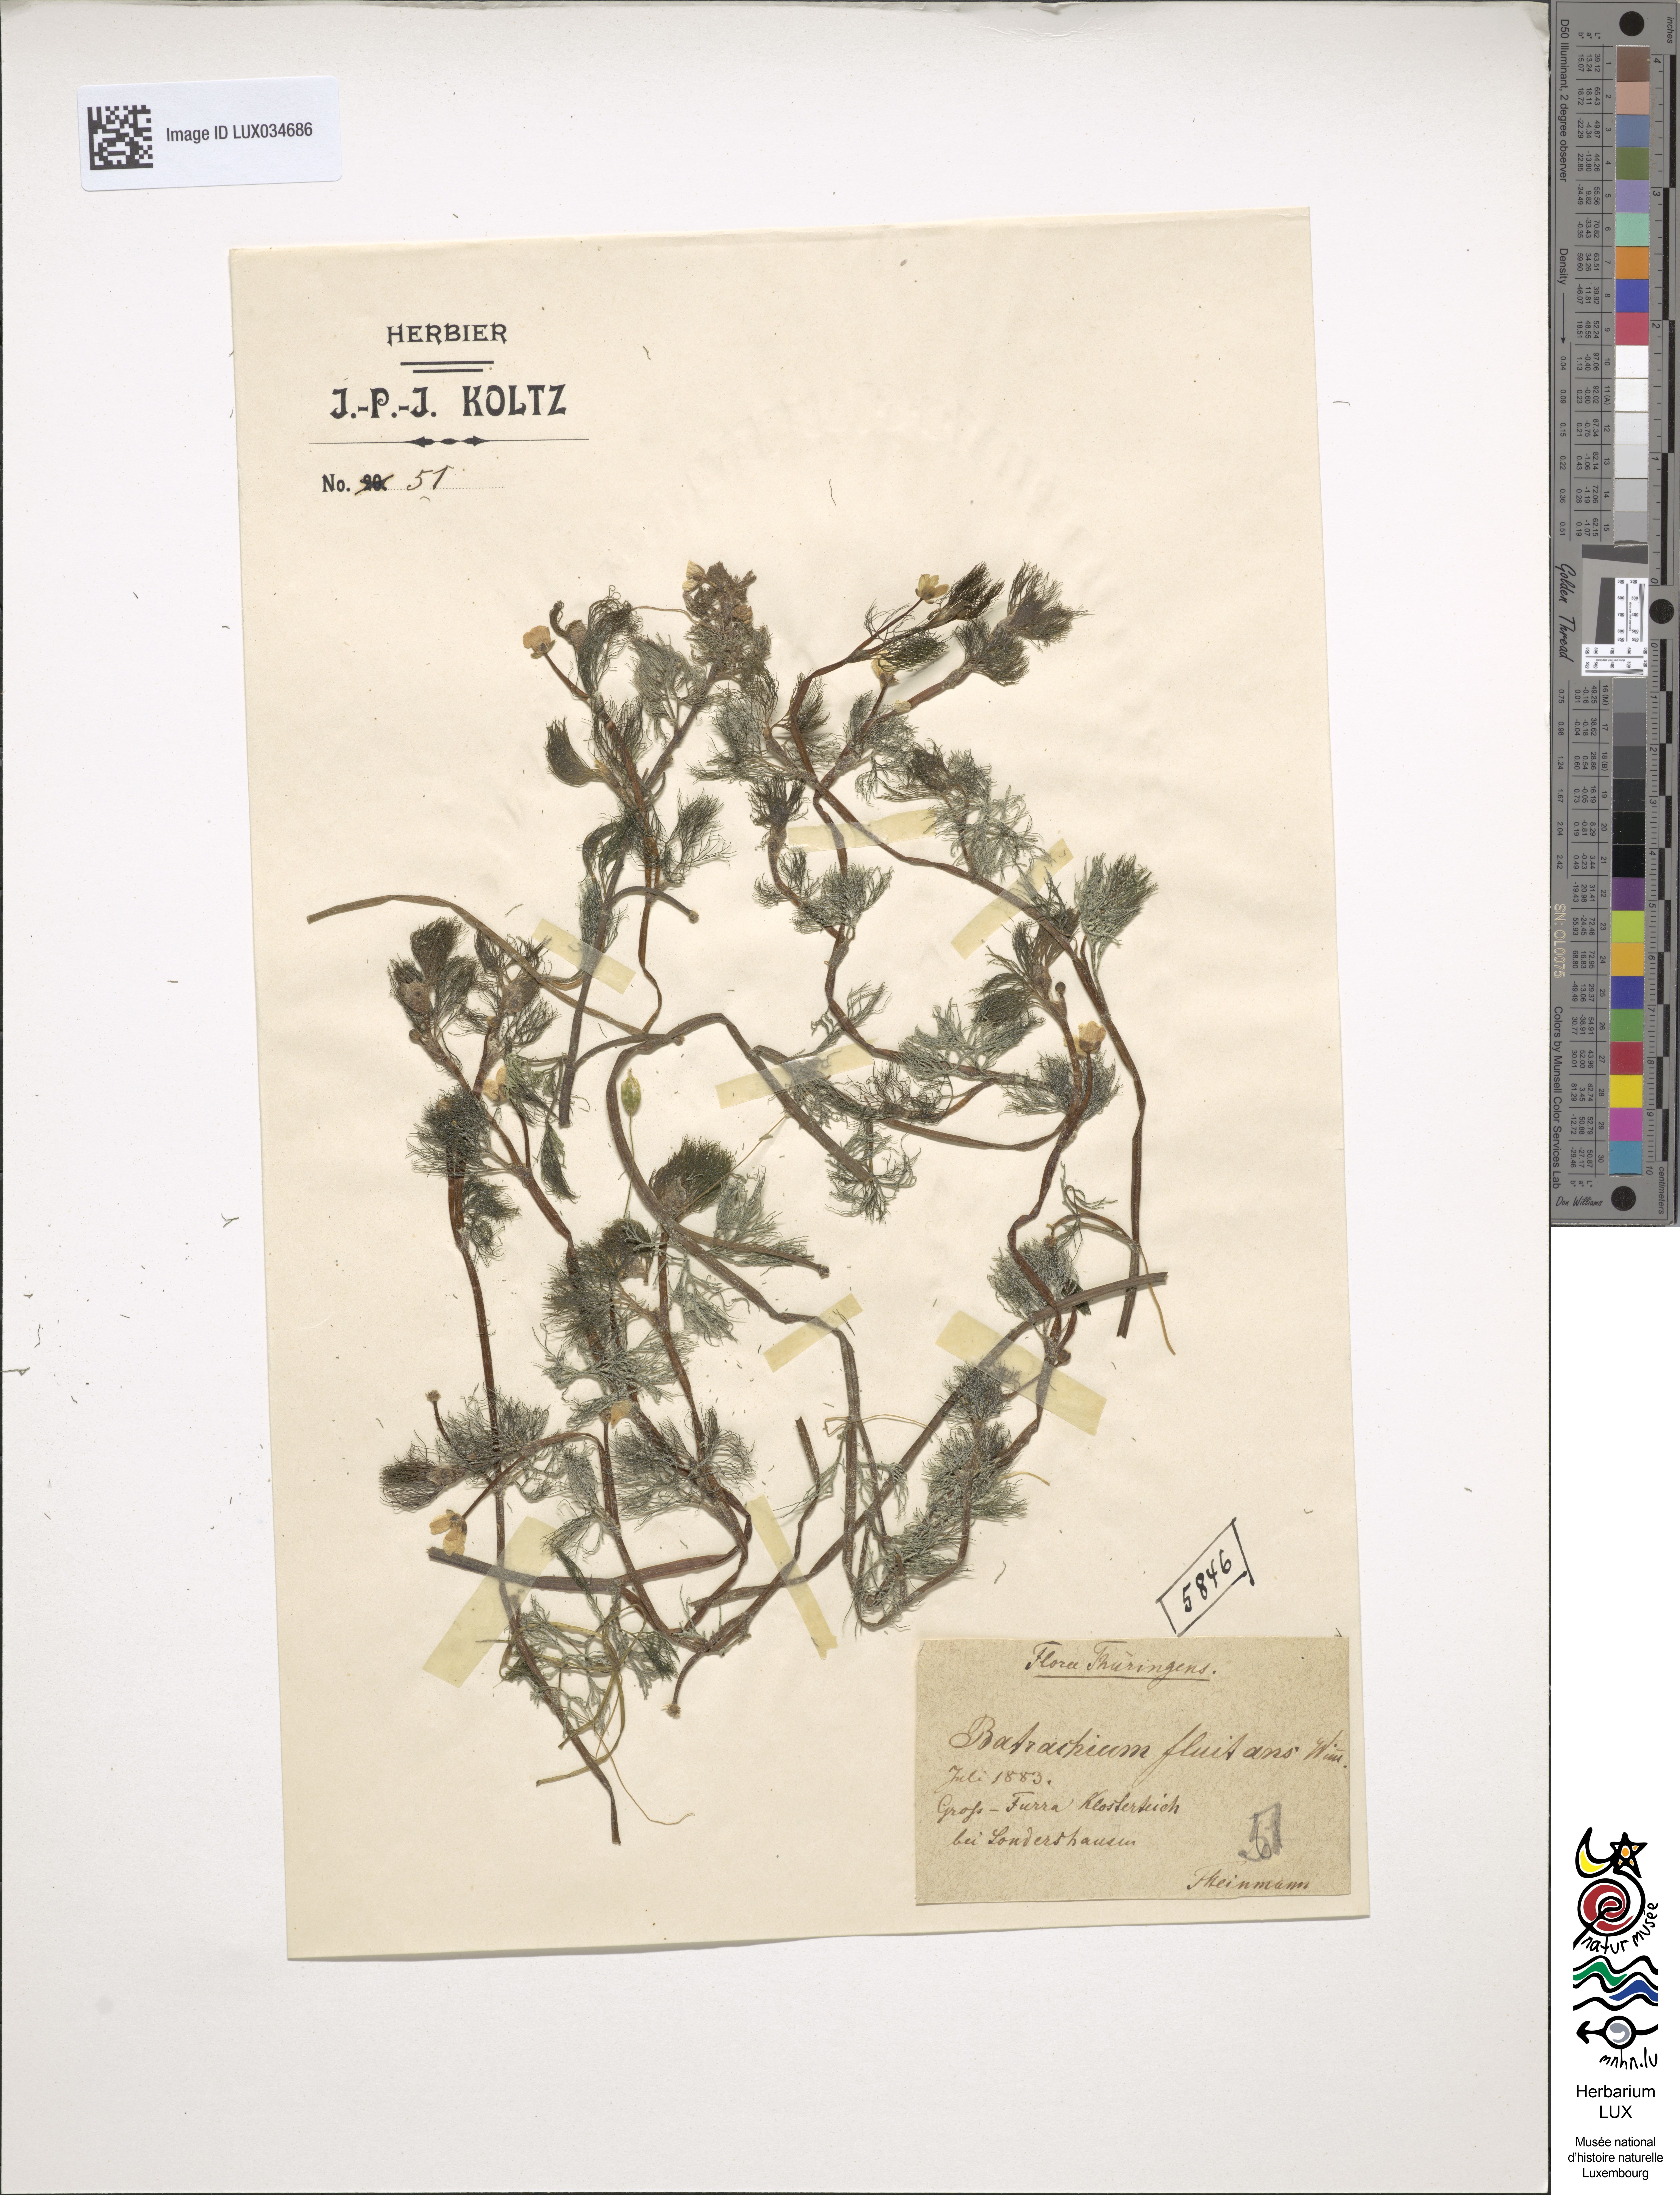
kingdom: Plantae
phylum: Tracheophyta
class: Magnoliopsida
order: Ranunculales
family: Ranunculaceae
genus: Ranunculus
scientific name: Ranunculus fluitans
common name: River water-crowfoot
